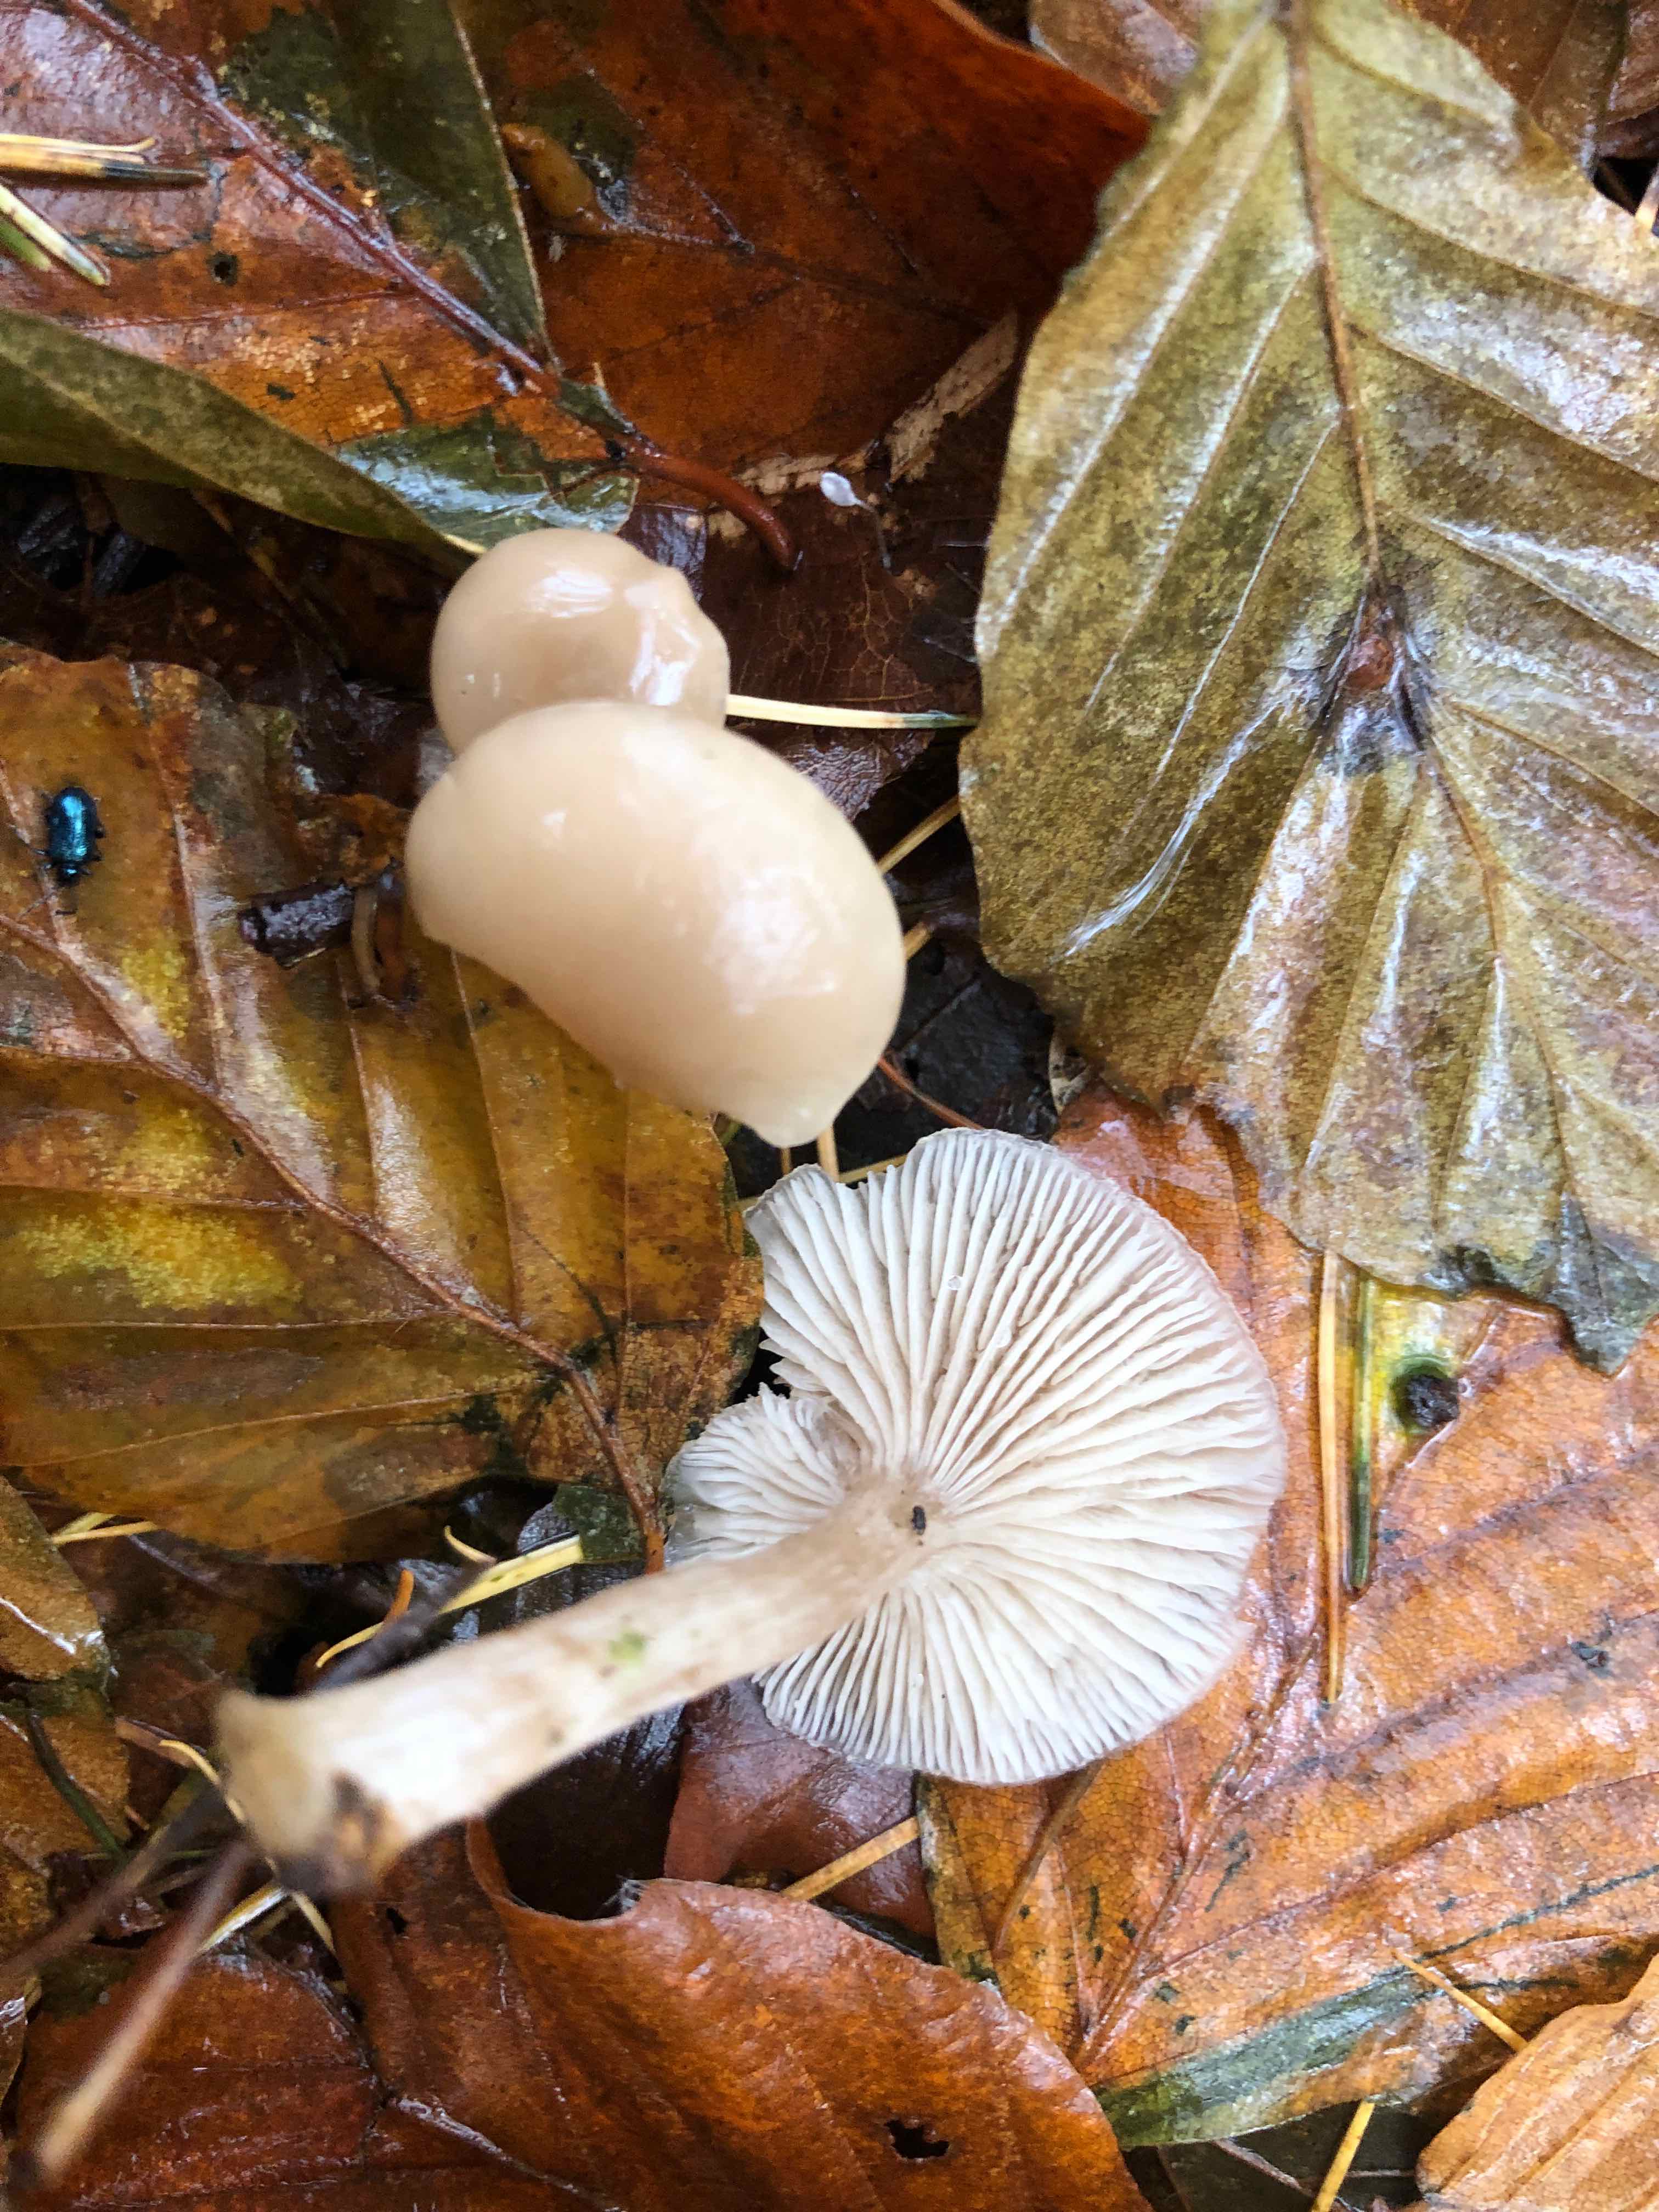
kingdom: Fungi
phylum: Basidiomycota
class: Agaricomycetes
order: Agaricales
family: Tricholomataceae
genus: Clitocybe
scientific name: Clitocybe fragrans
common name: vellugtende tragthat
